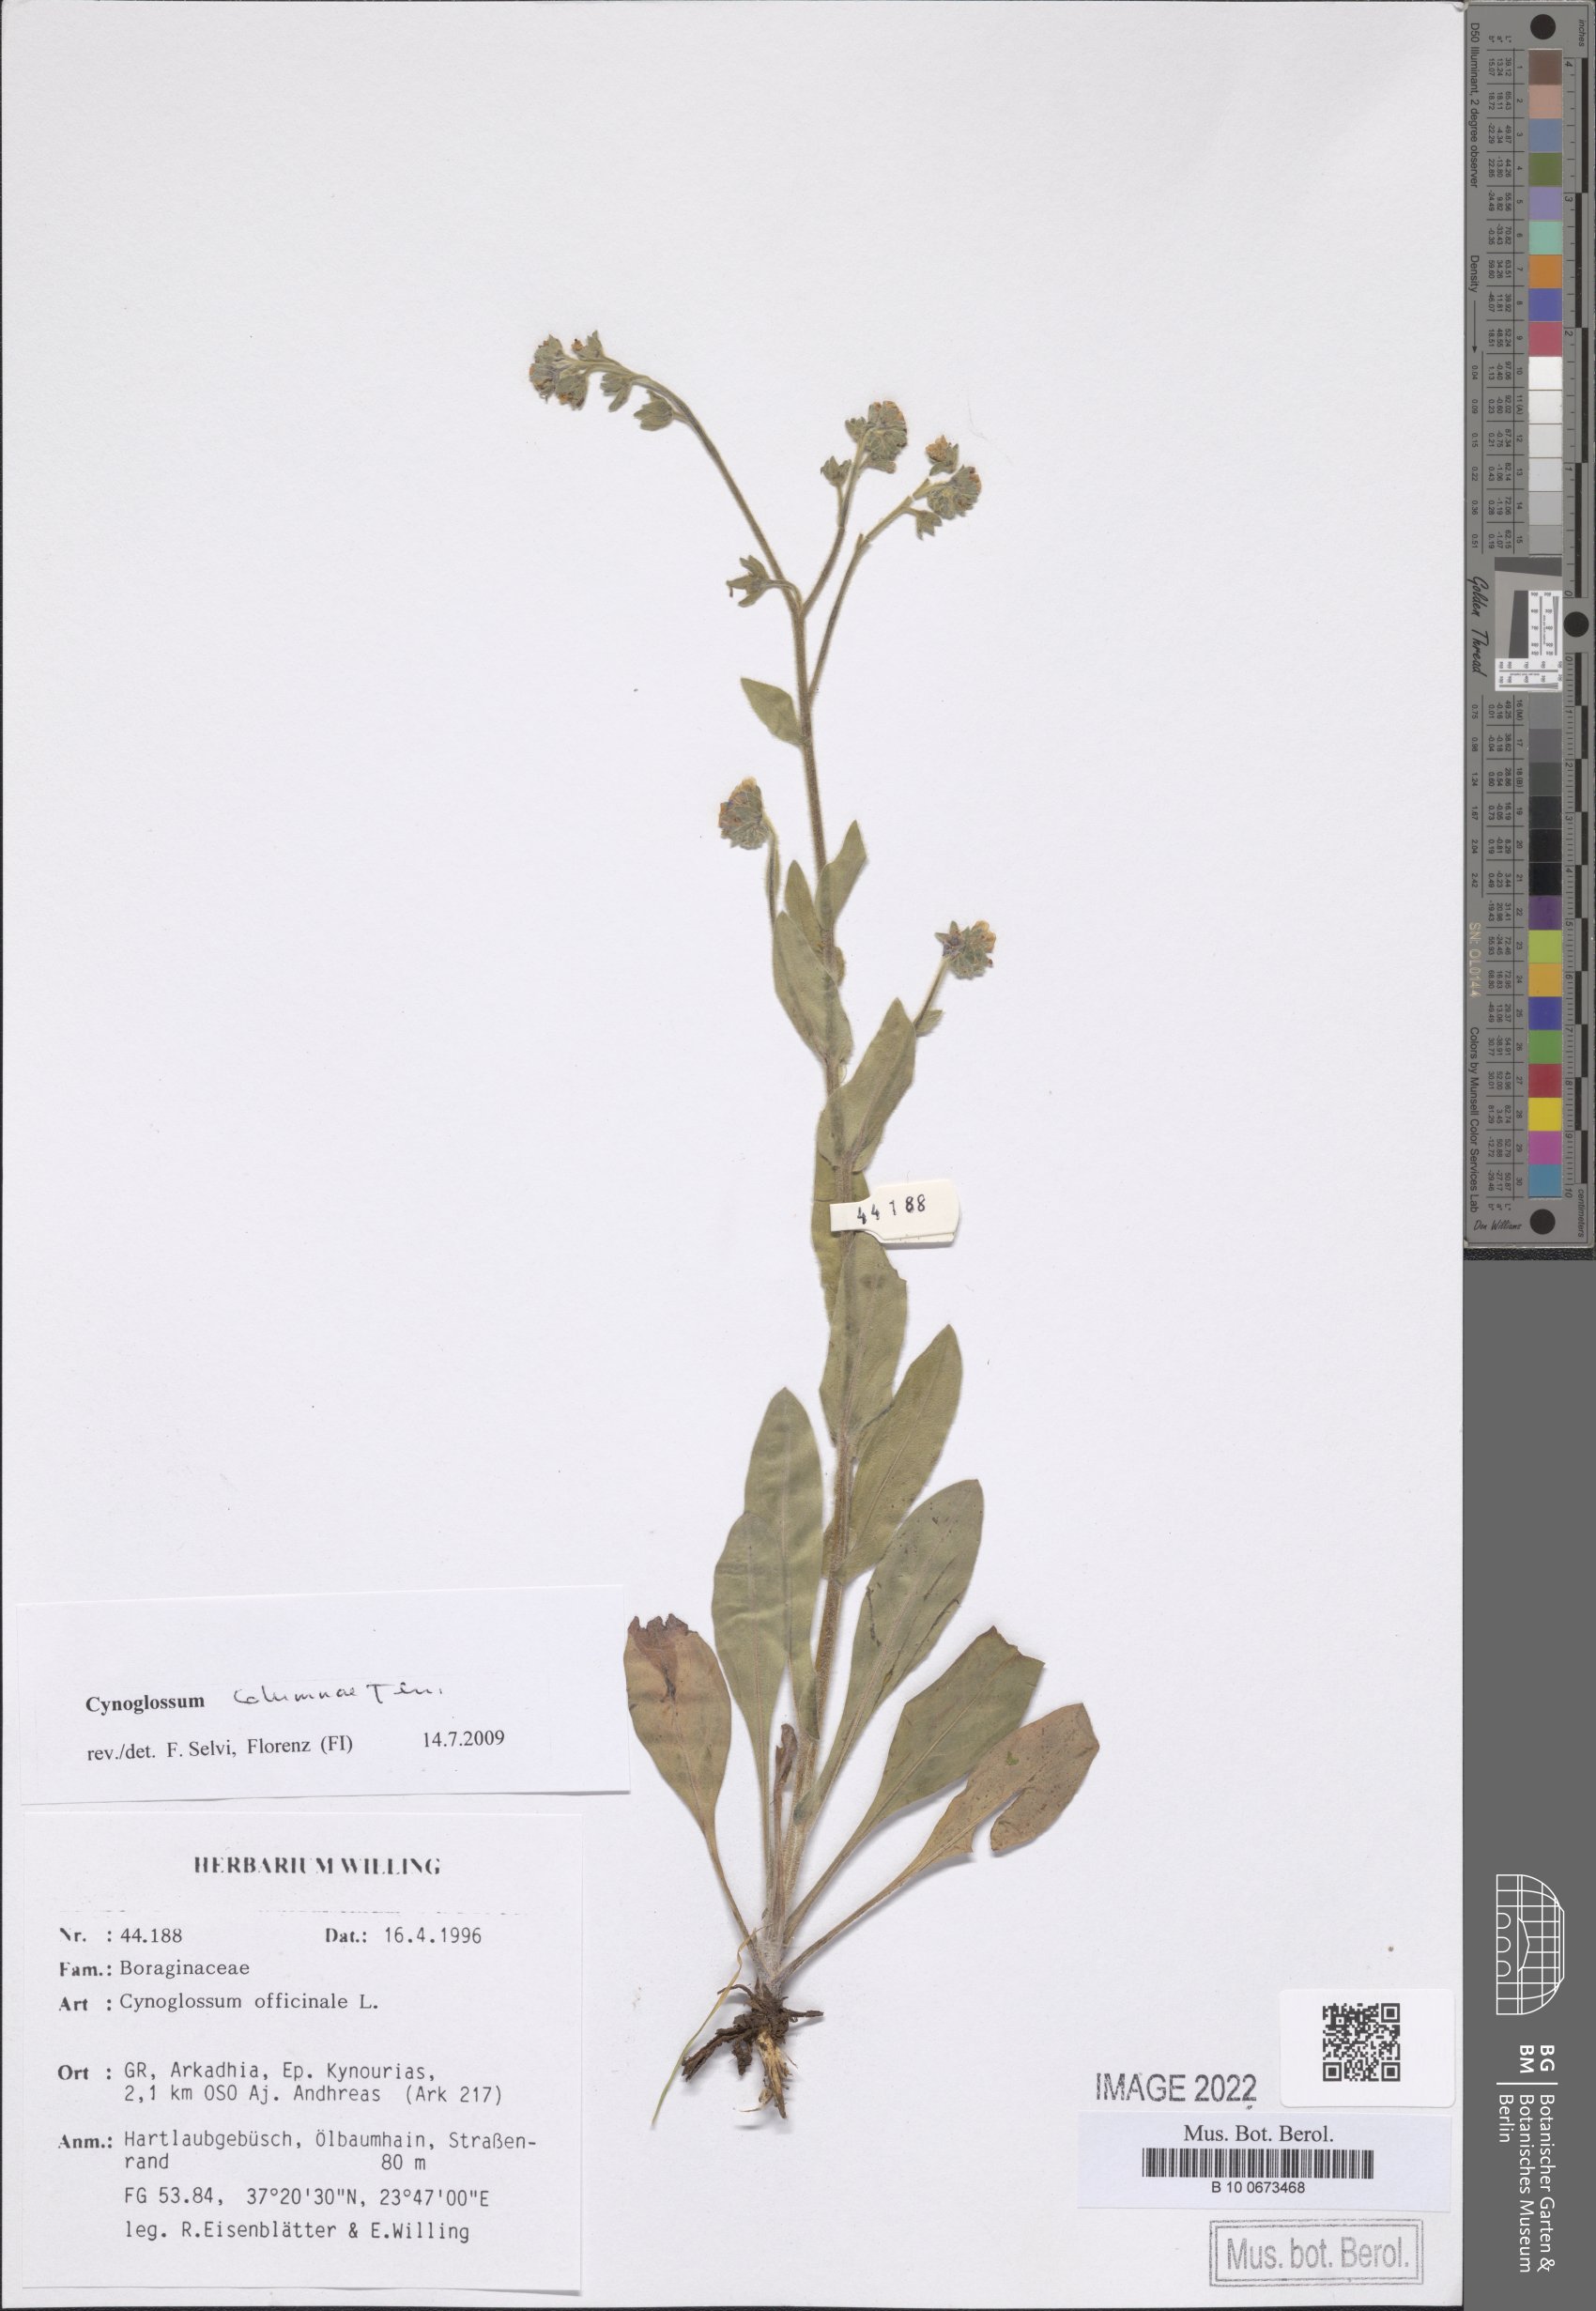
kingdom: Plantae
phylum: Tracheophyta
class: Magnoliopsida
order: Boraginales
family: Boraginaceae
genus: Rindera
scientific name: Rindera columnae
